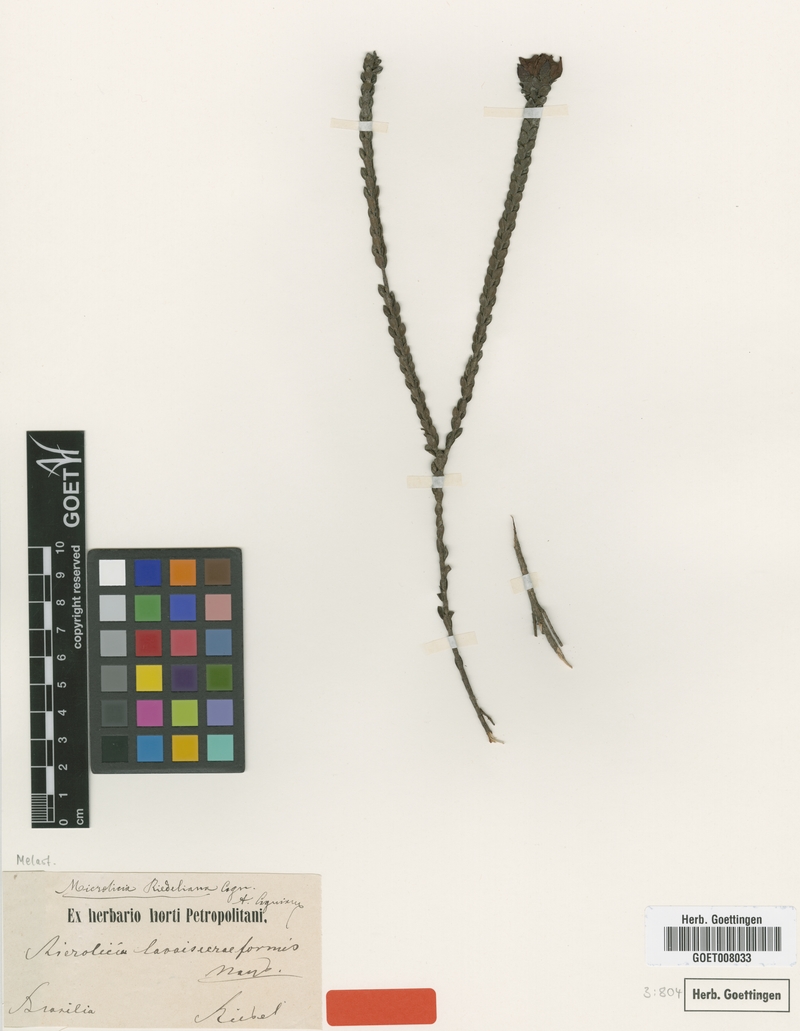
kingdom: Plantae
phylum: Tracheophyta
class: Magnoliopsida
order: Myrtales
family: Melastomataceae
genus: Microlicia
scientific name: Microlicia riedeliana
